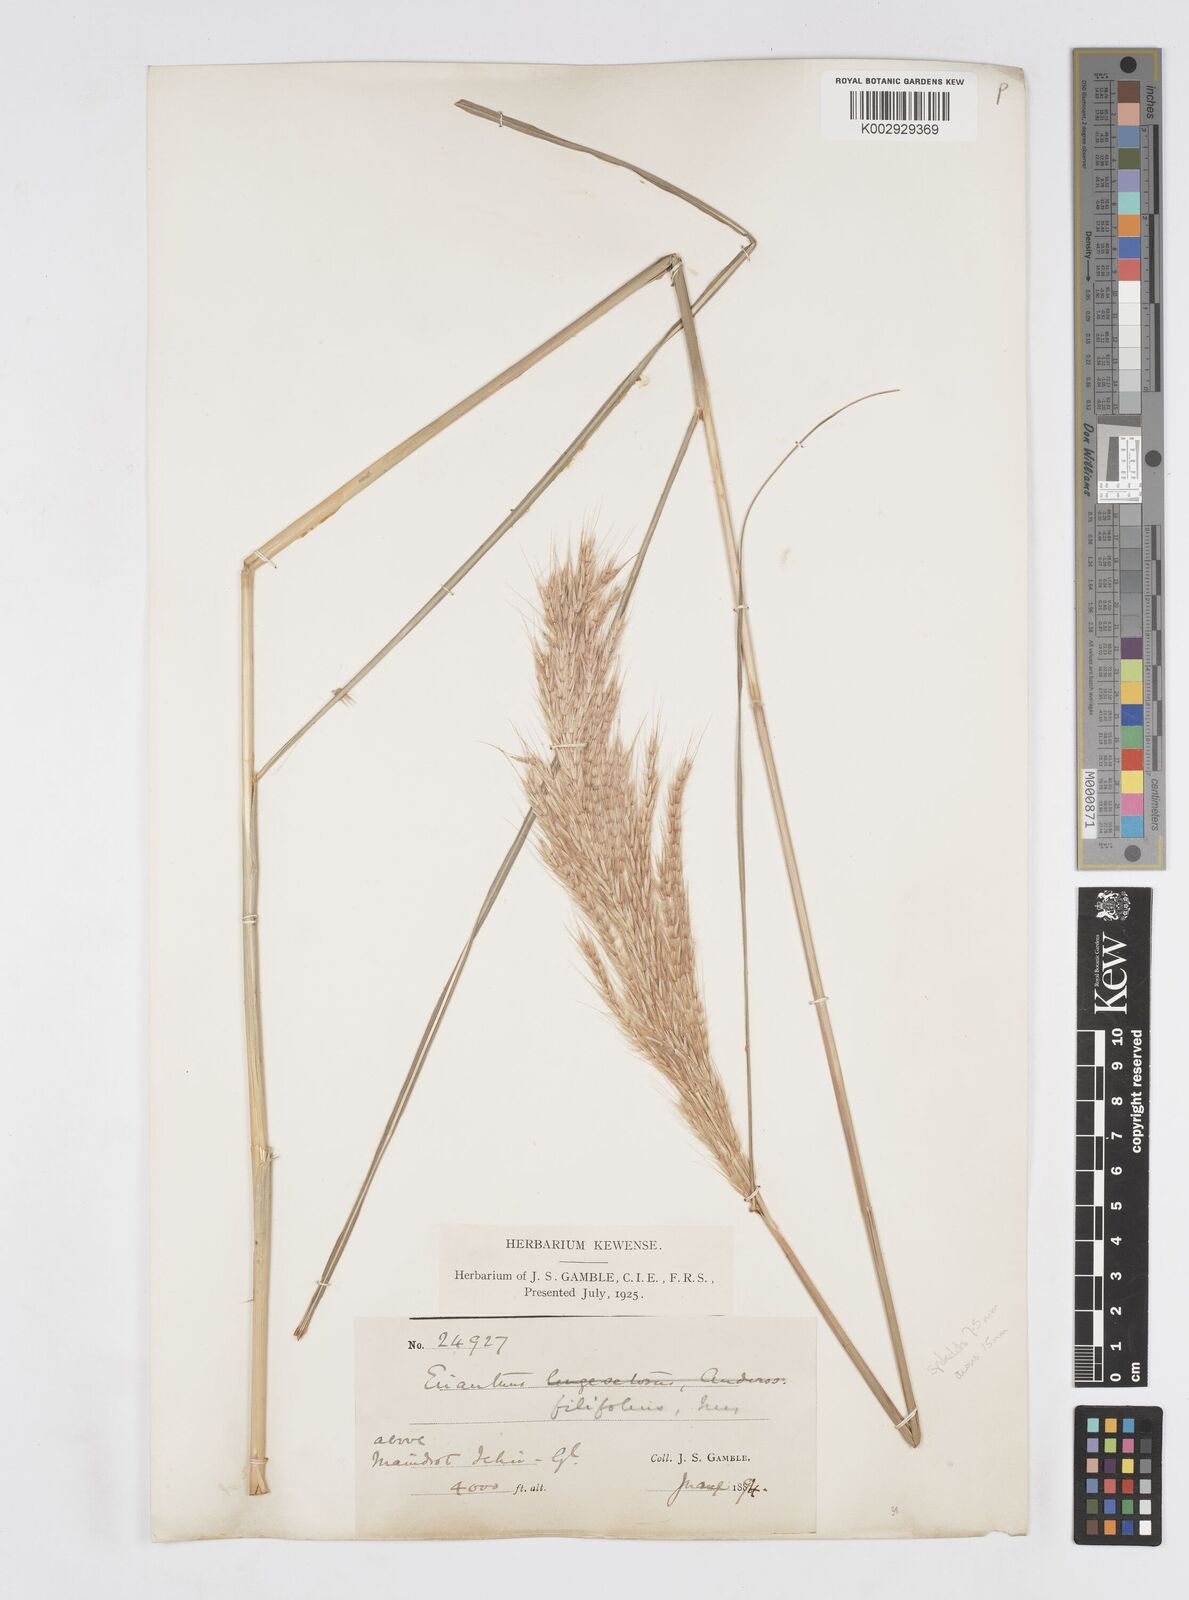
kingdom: Plantae
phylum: Tracheophyta
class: Liliopsida
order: Poales
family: Poaceae
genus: Saccharum
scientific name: Saccharum filifolium
